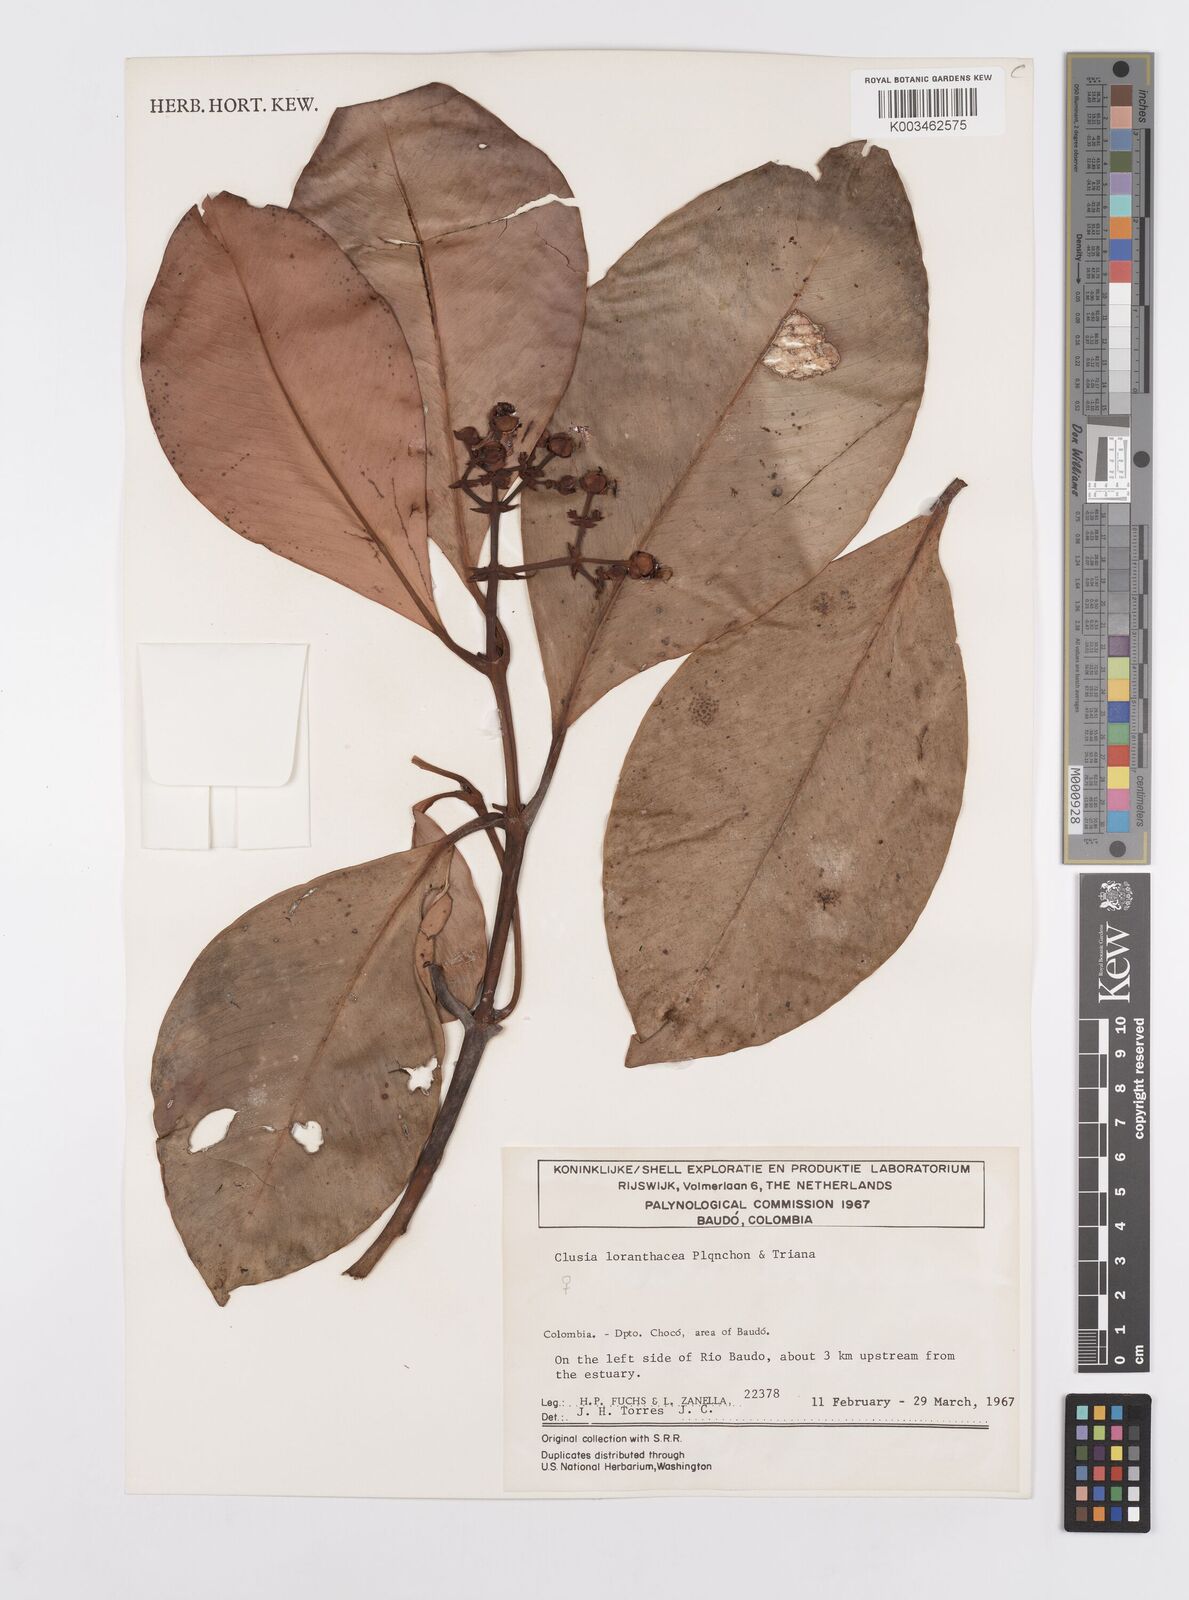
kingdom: Plantae
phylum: Tracheophyta
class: Magnoliopsida
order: Malpighiales
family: Clusiaceae
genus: Clusia
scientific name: Clusia loranthacea
